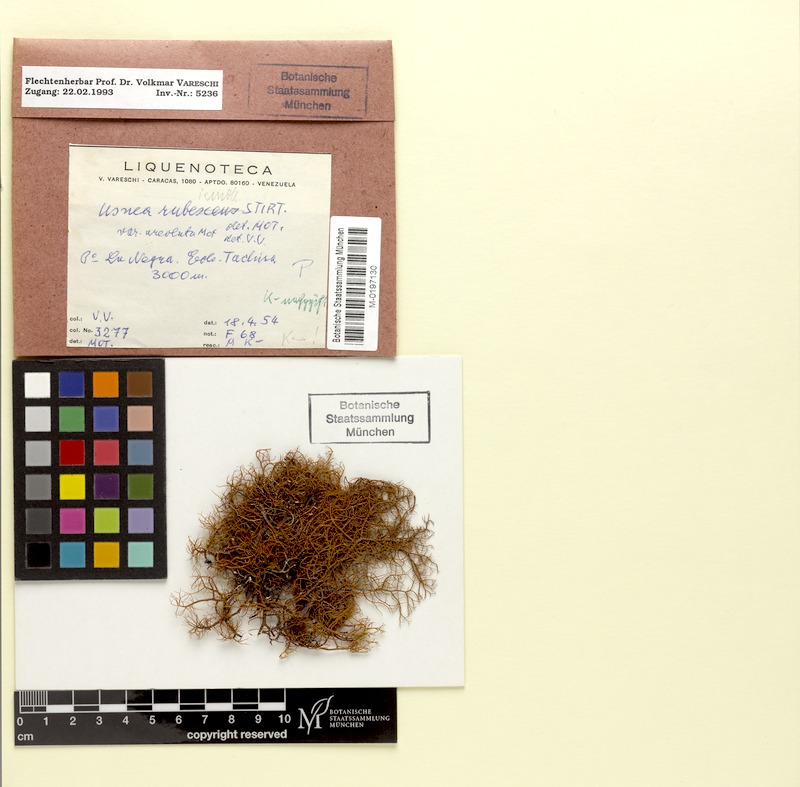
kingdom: Fungi
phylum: Ascomycota
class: Lecanoromycetes
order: Lecanorales
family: Parmeliaceae
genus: Usnea
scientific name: Usnea rubrotincta
